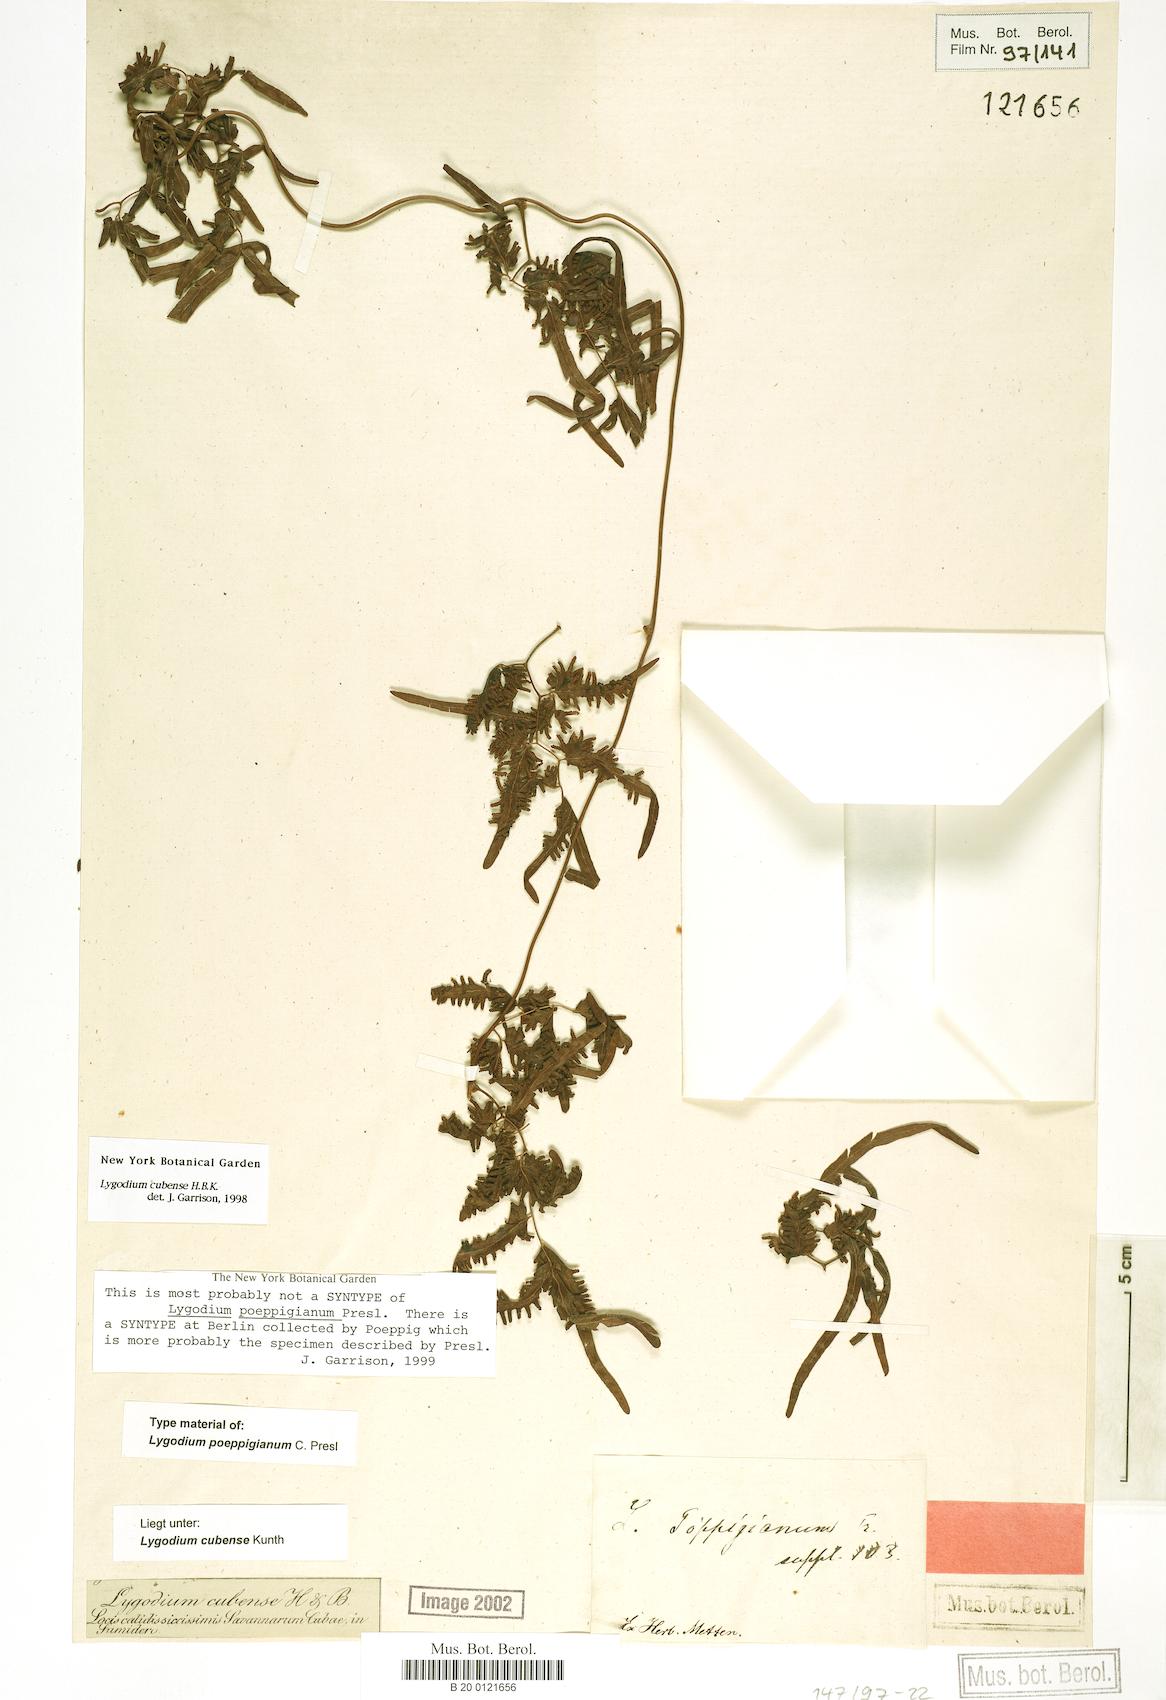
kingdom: Plantae
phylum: Tracheophyta
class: Polypodiopsida
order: Schizaeales
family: Lygodiaceae
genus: Lygodium
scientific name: Lygodium cubense
